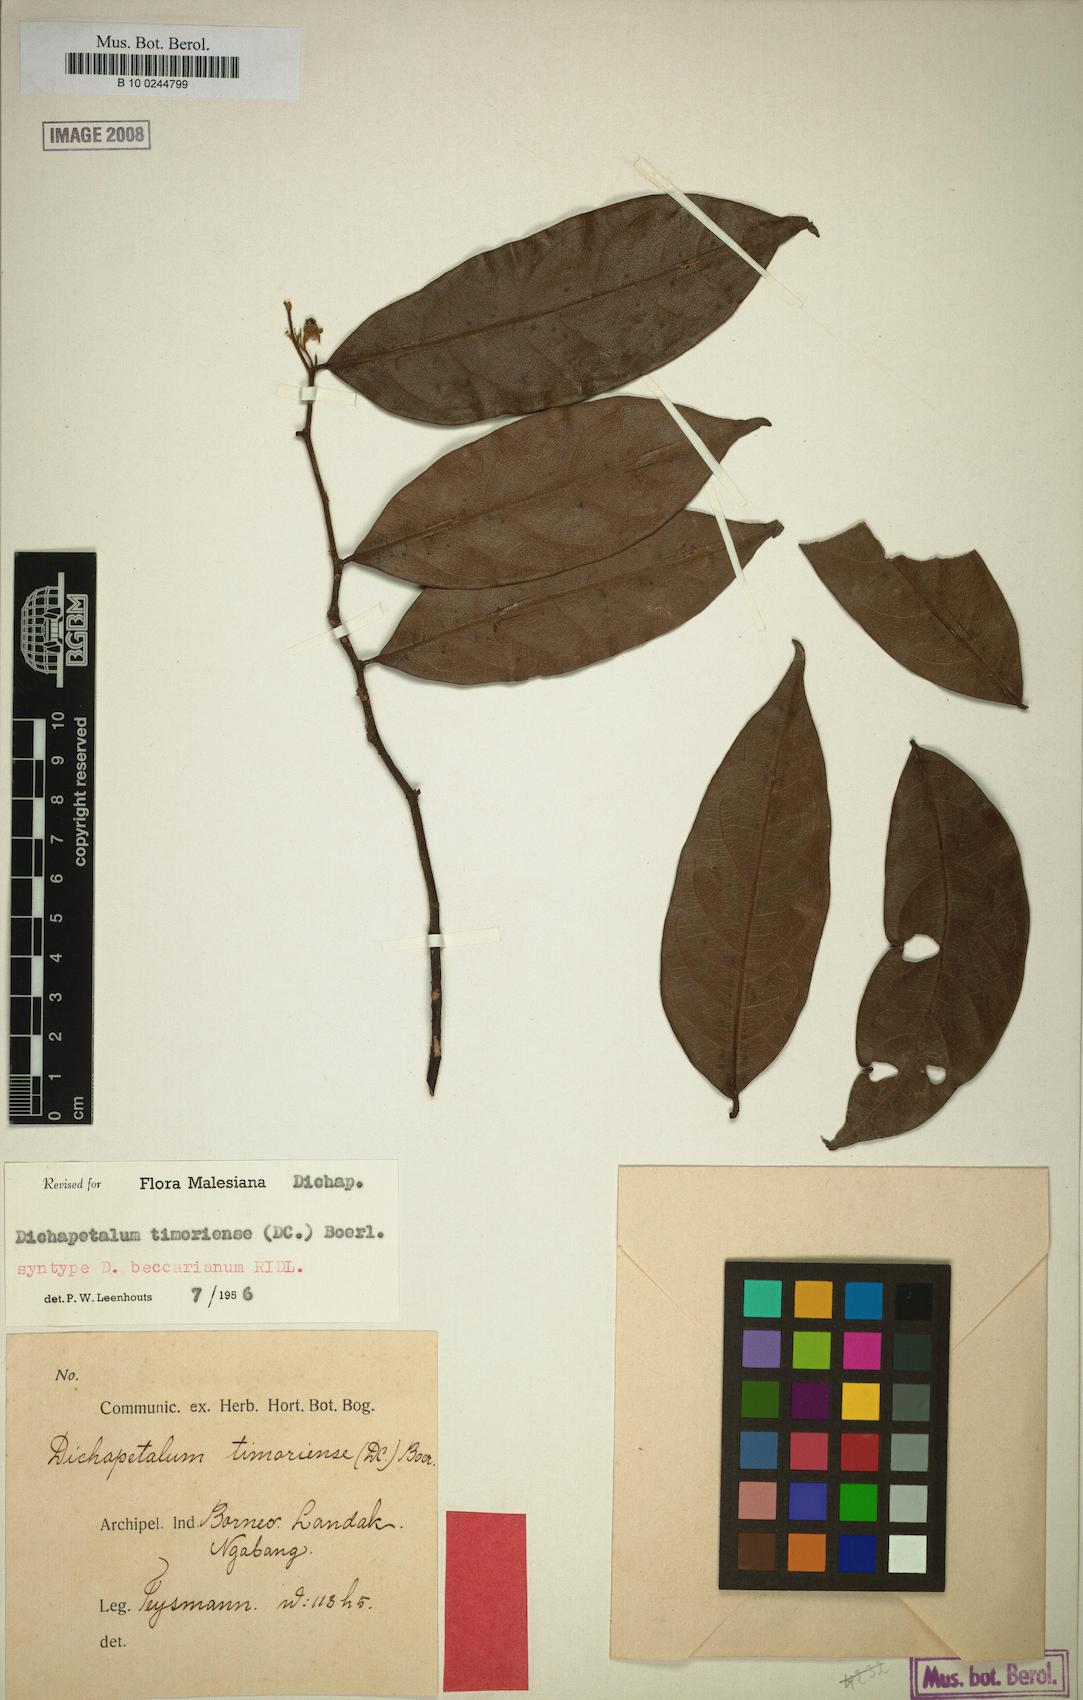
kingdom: Plantae
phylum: Tracheophyta
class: Magnoliopsida
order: Malpighiales
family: Dichapetalaceae
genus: Dichapetalum
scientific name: Dichapetalum timoriense
